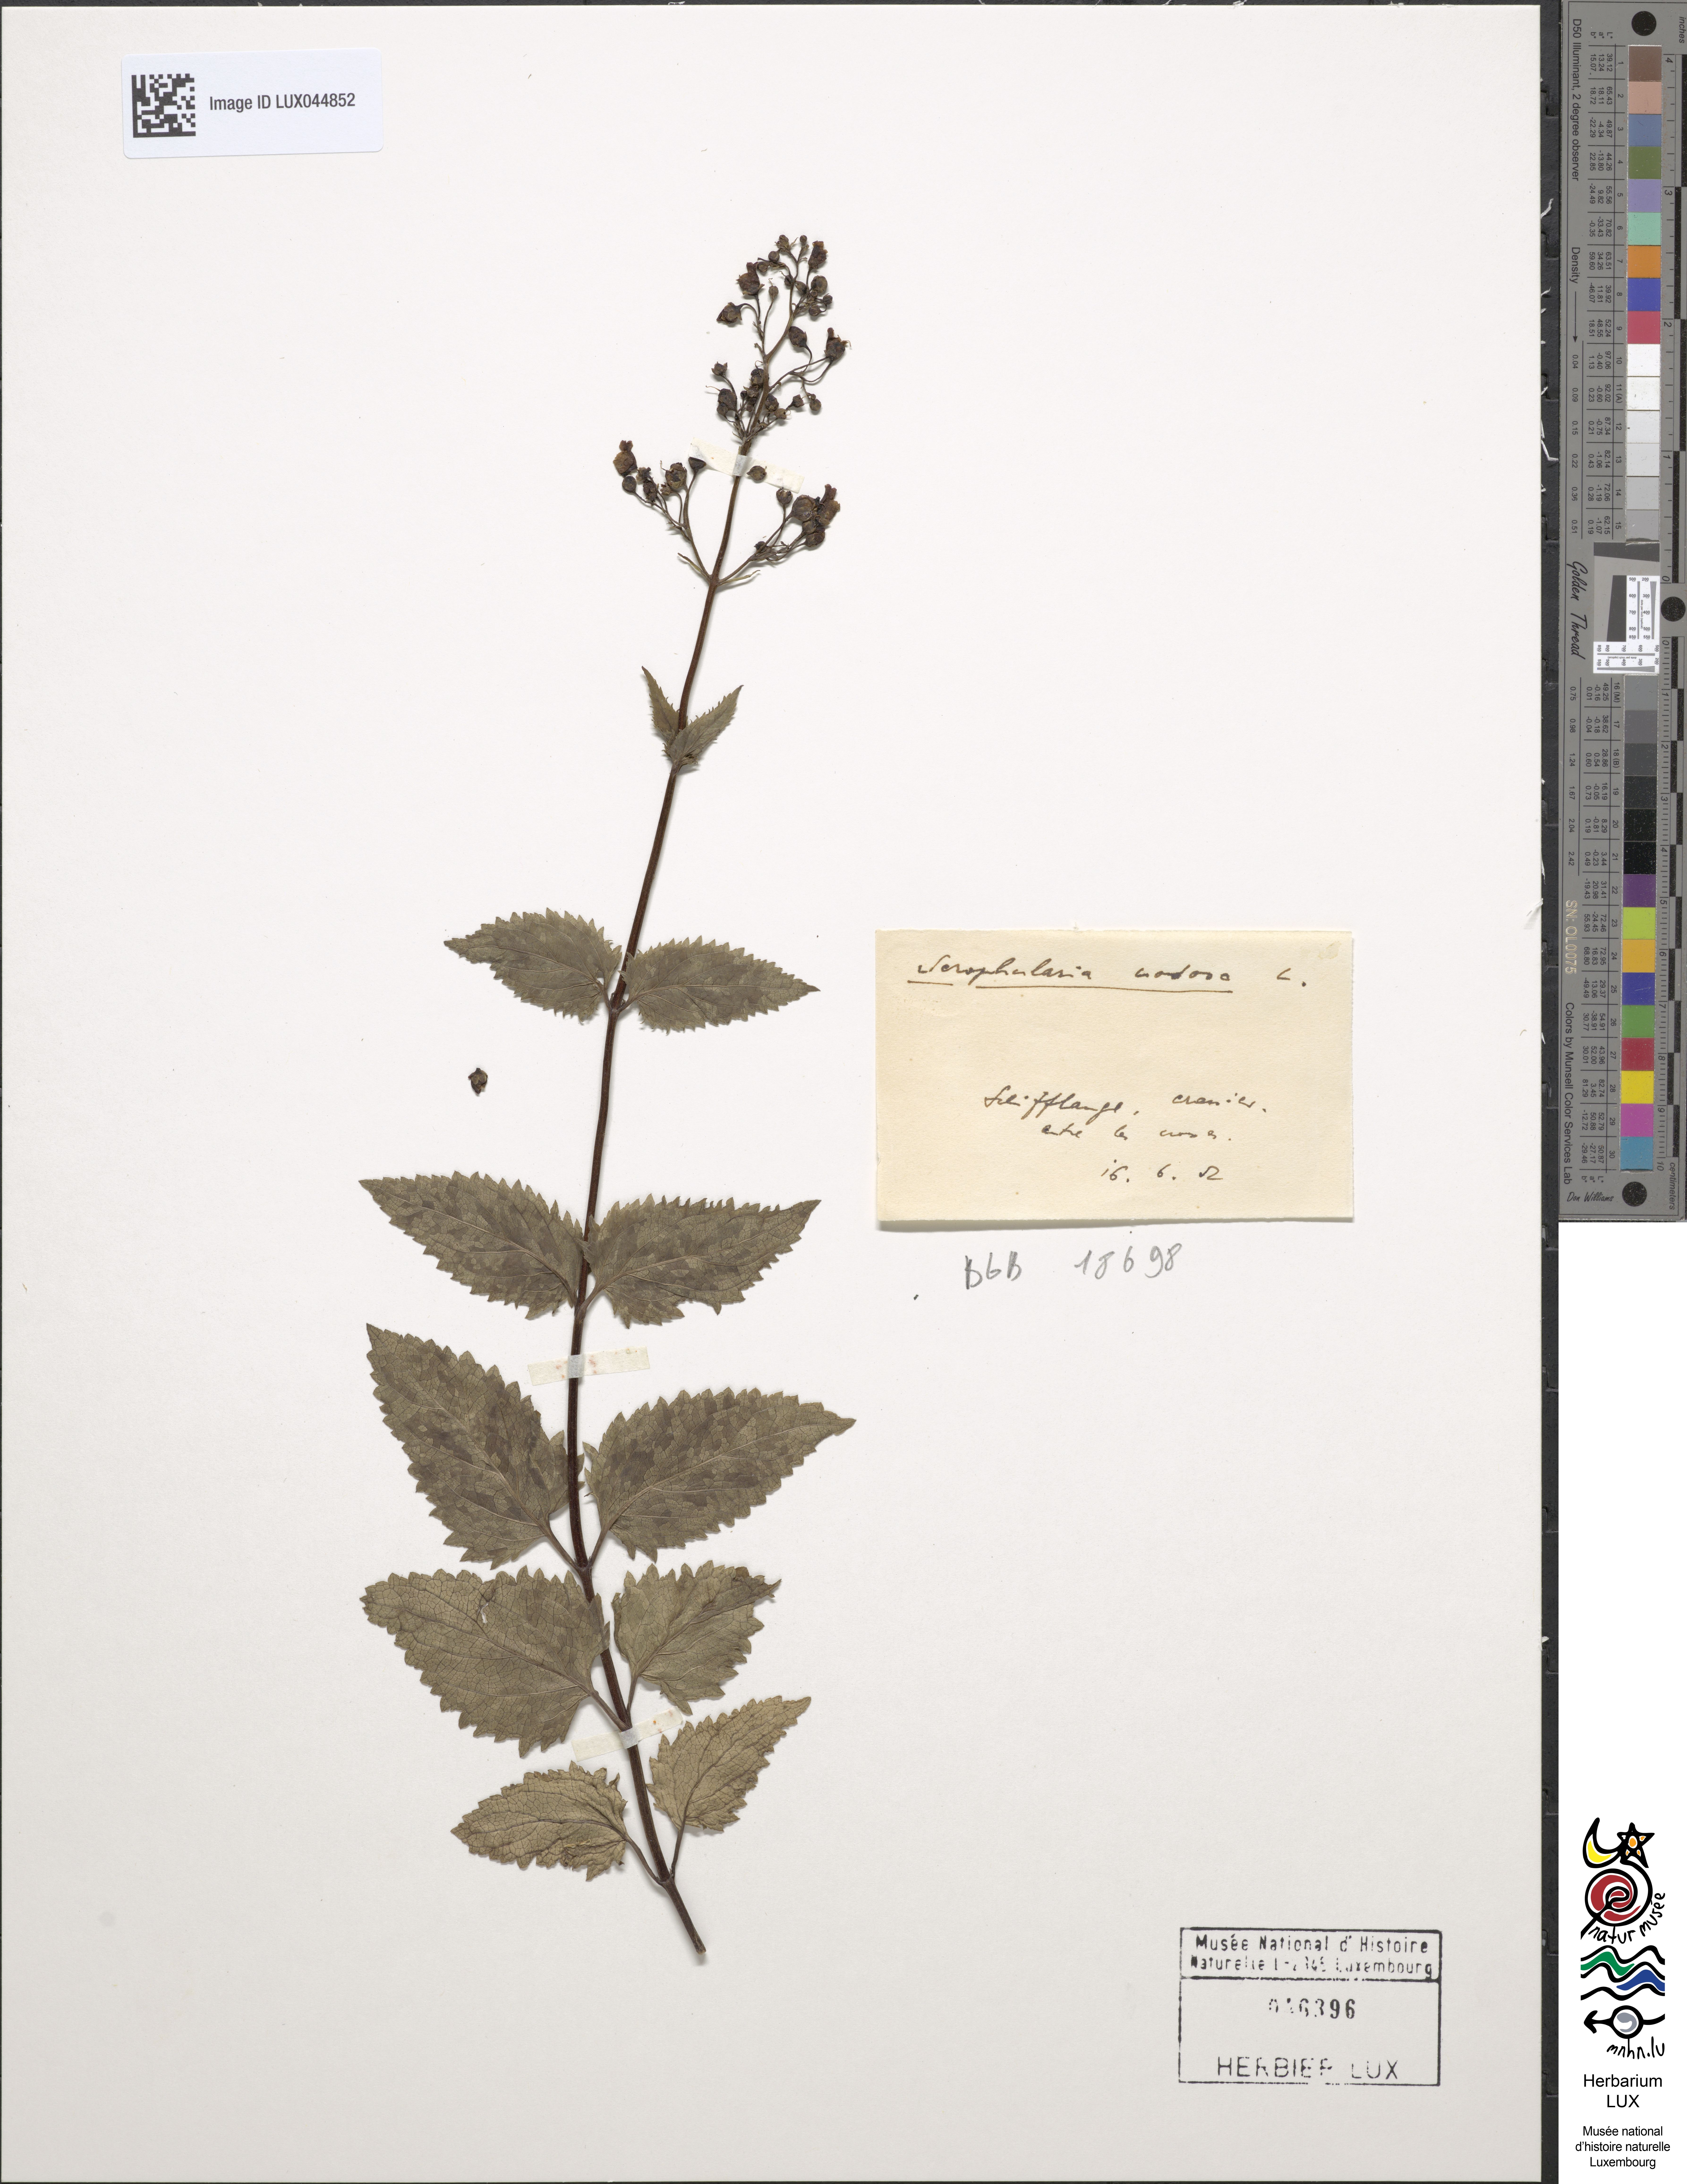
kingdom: Plantae
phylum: Tracheophyta
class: Magnoliopsida
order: Lamiales
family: Scrophulariaceae
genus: Scrophularia
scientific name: Scrophularia nodosa
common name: Common figwort
